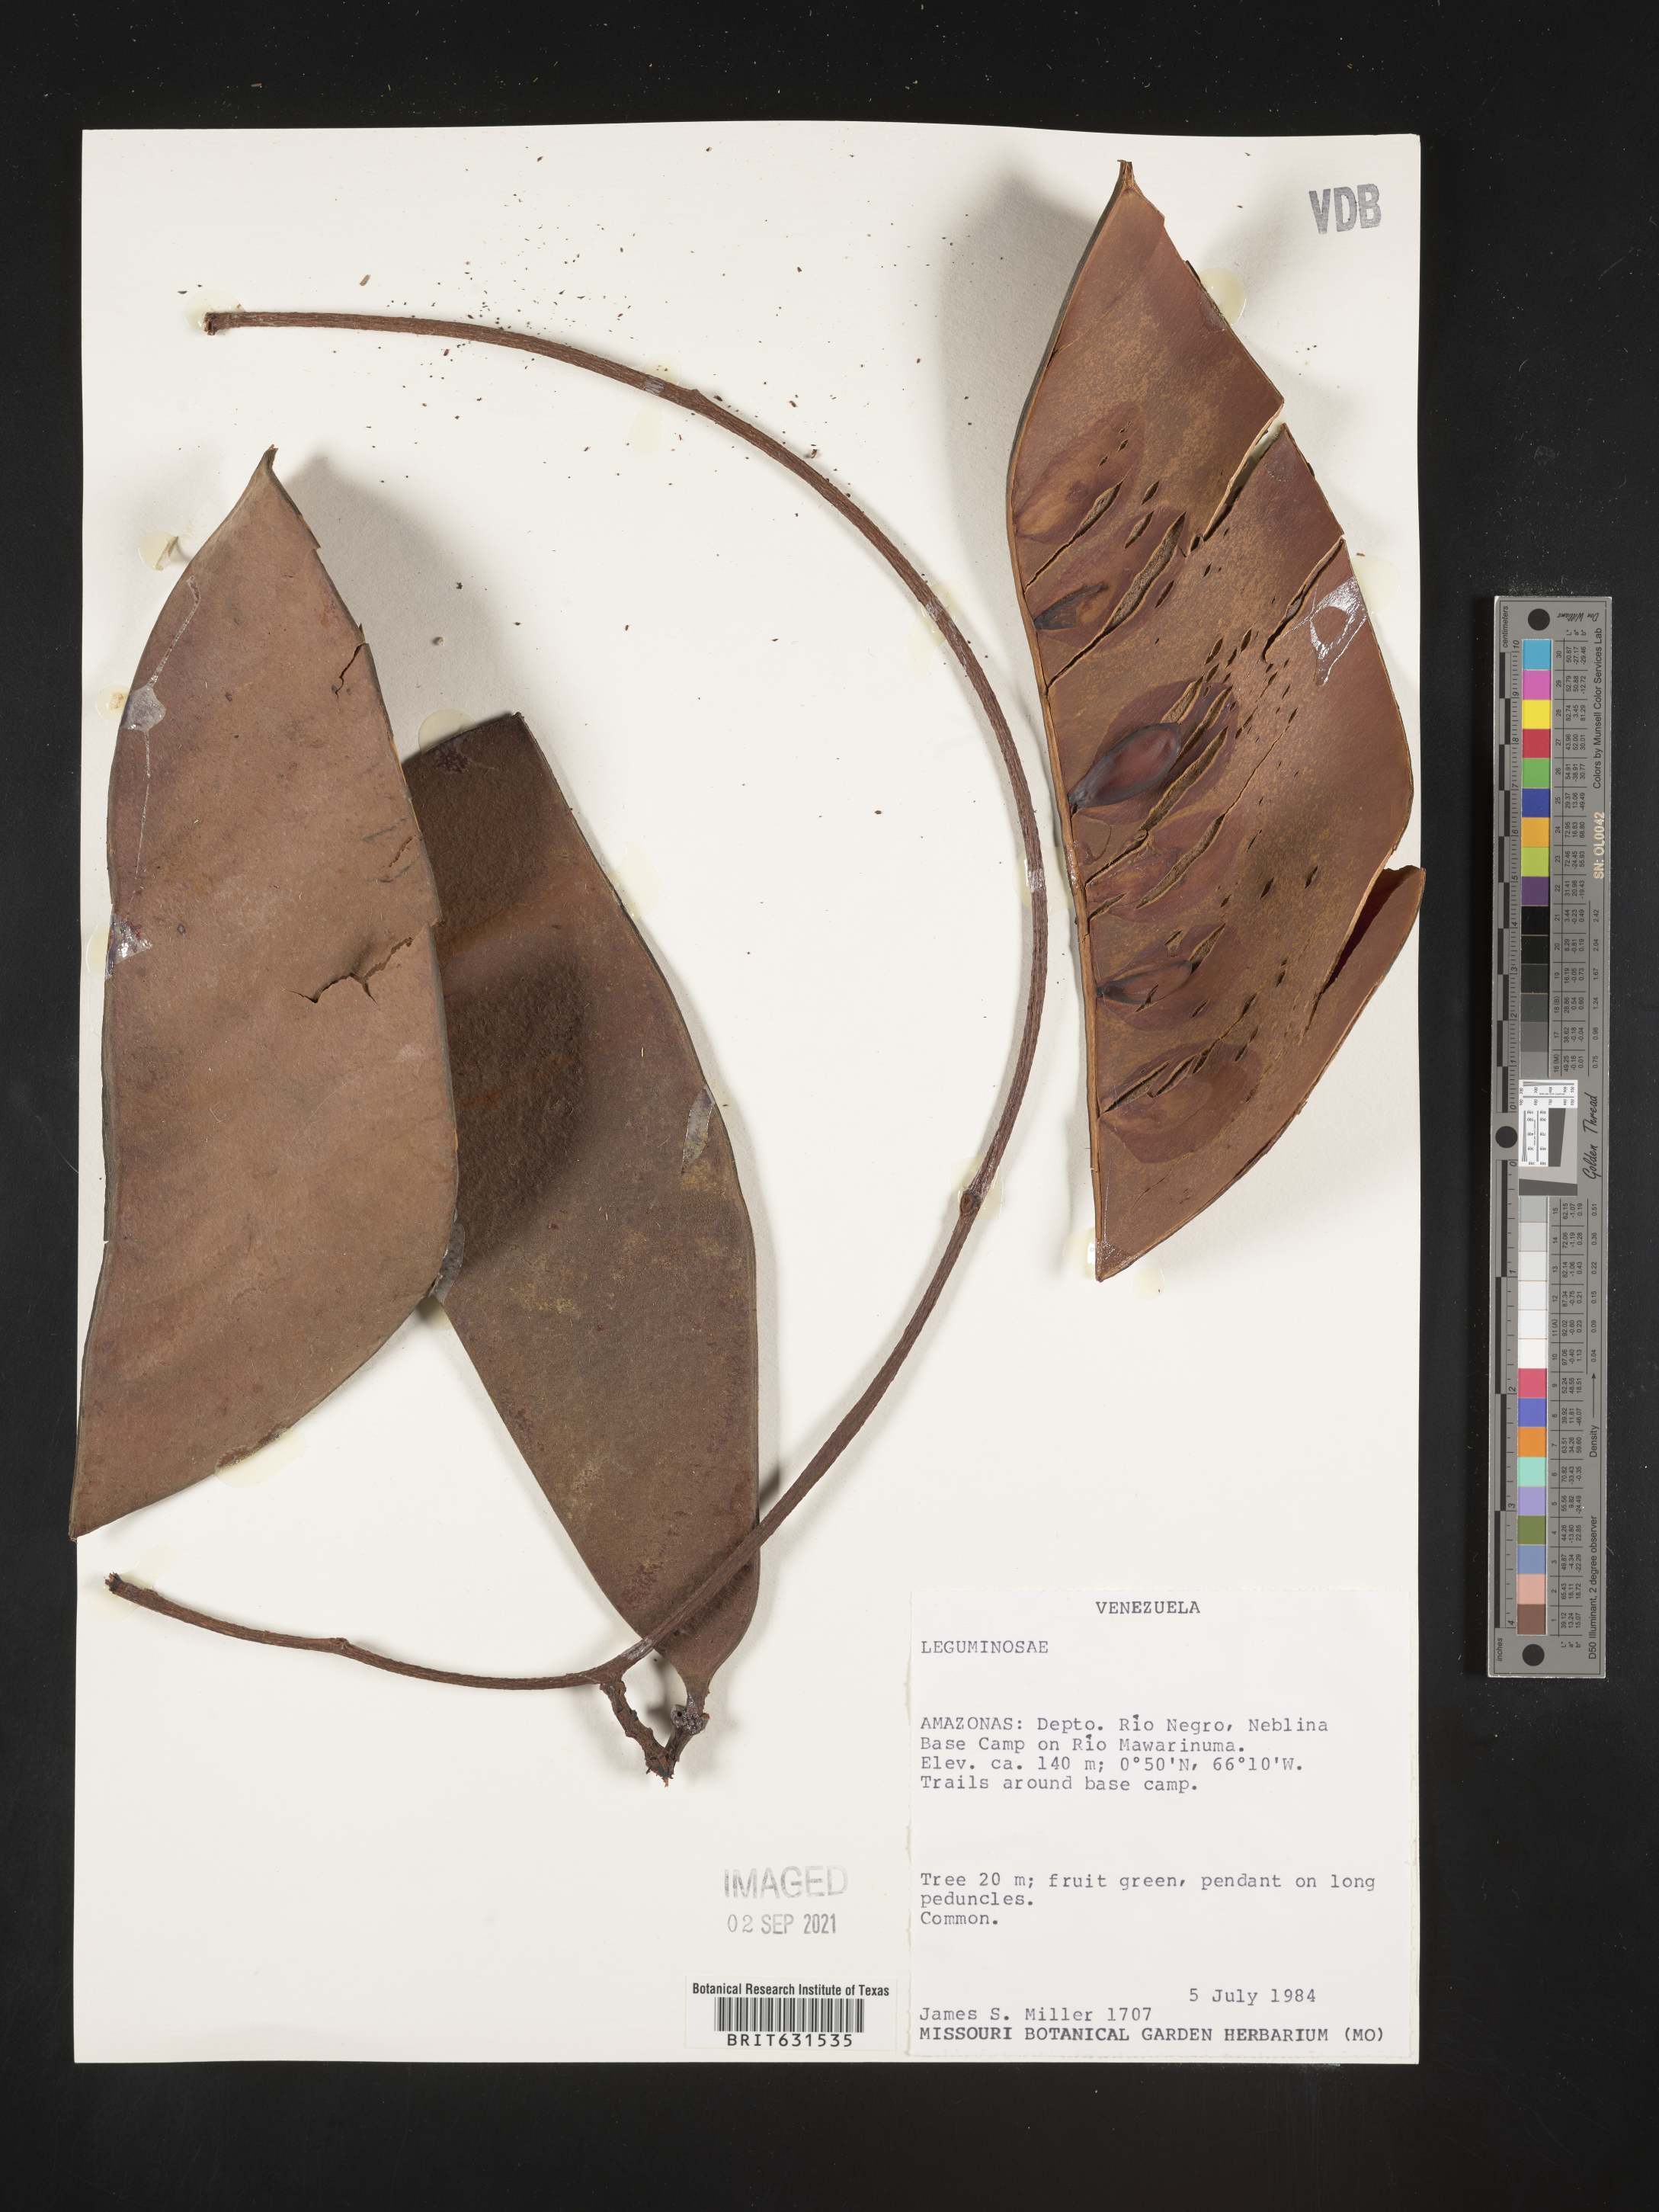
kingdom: Plantae
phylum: Tracheophyta
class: Magnoliopsida
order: Fabales
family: Fabaceae
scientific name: Fabaceae
